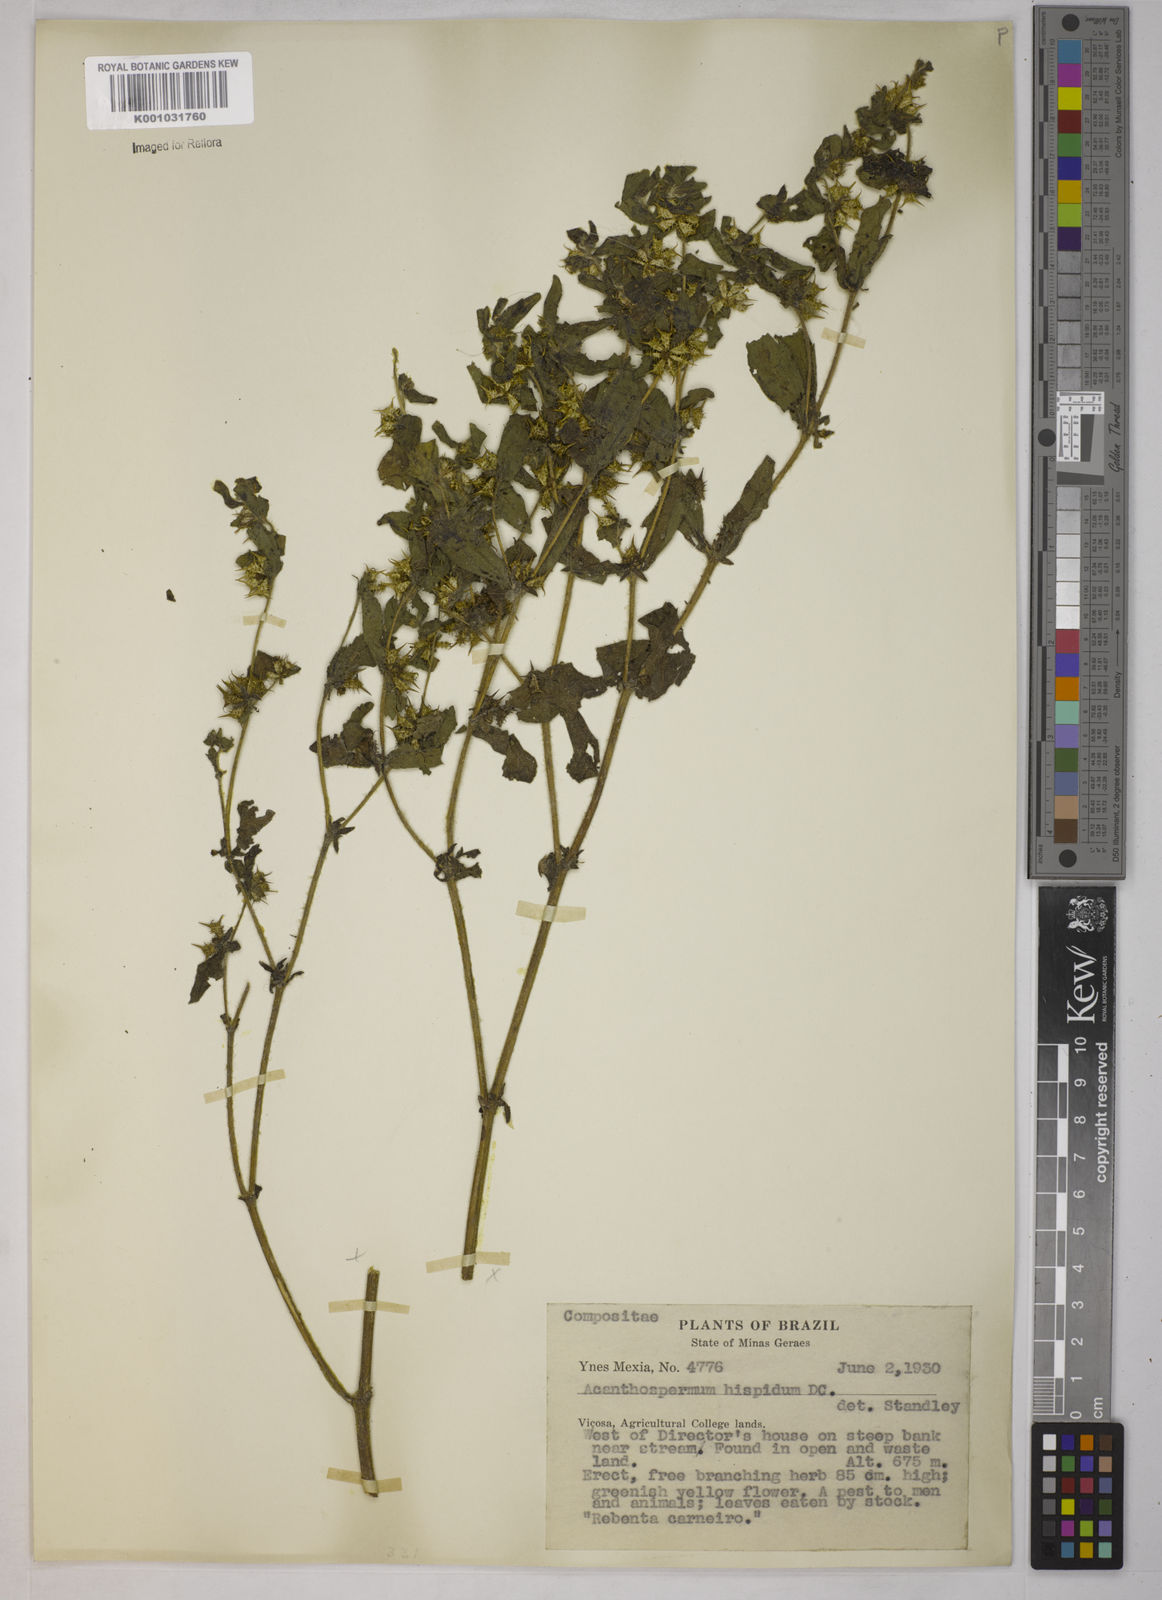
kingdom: Plantae
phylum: Tracheophyta
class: Magnoliopsida
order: Asterales
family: Asteraceae
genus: Acanthospermum
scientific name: Acanthospermum hispidum
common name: Hispid starbur
